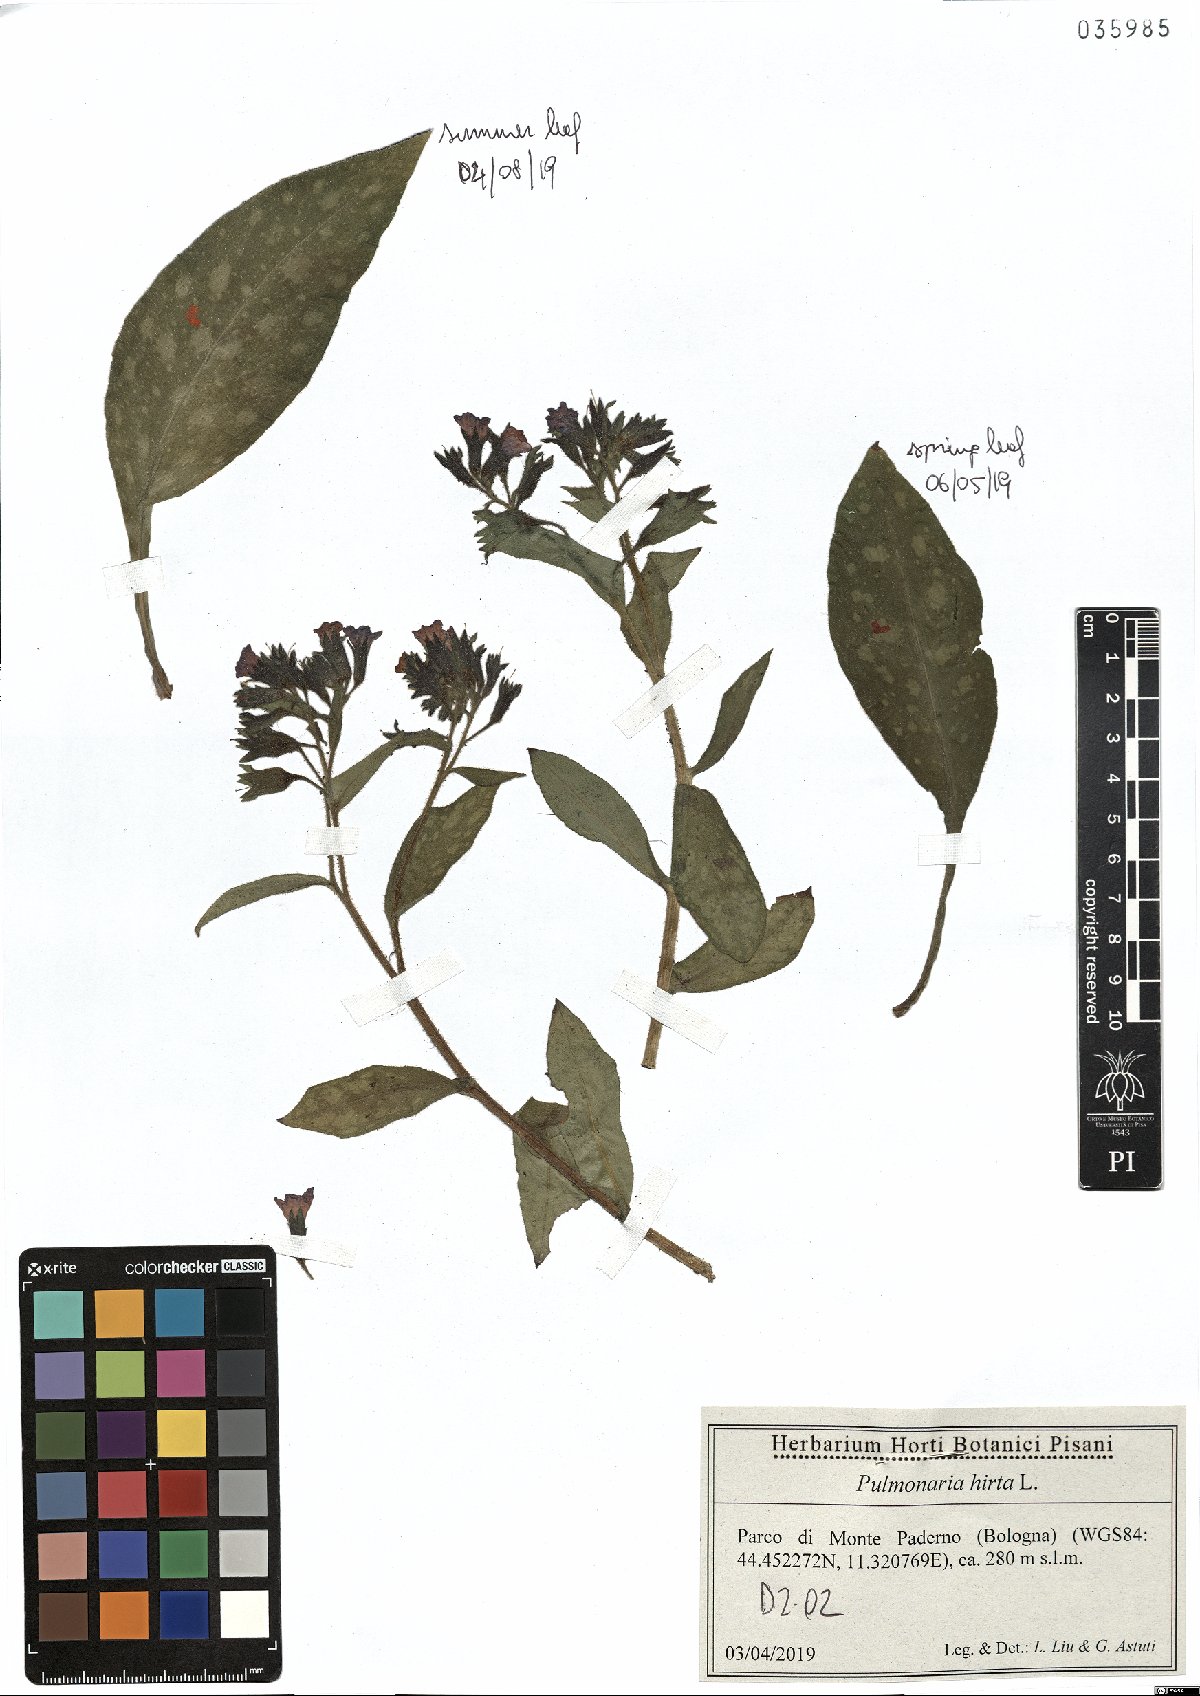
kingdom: Plantae
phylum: Tracheophyta
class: Magnoliopsida
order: Boraginales
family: Boraginaceae
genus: Pulmonaria
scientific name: Pulmonaria hirta
